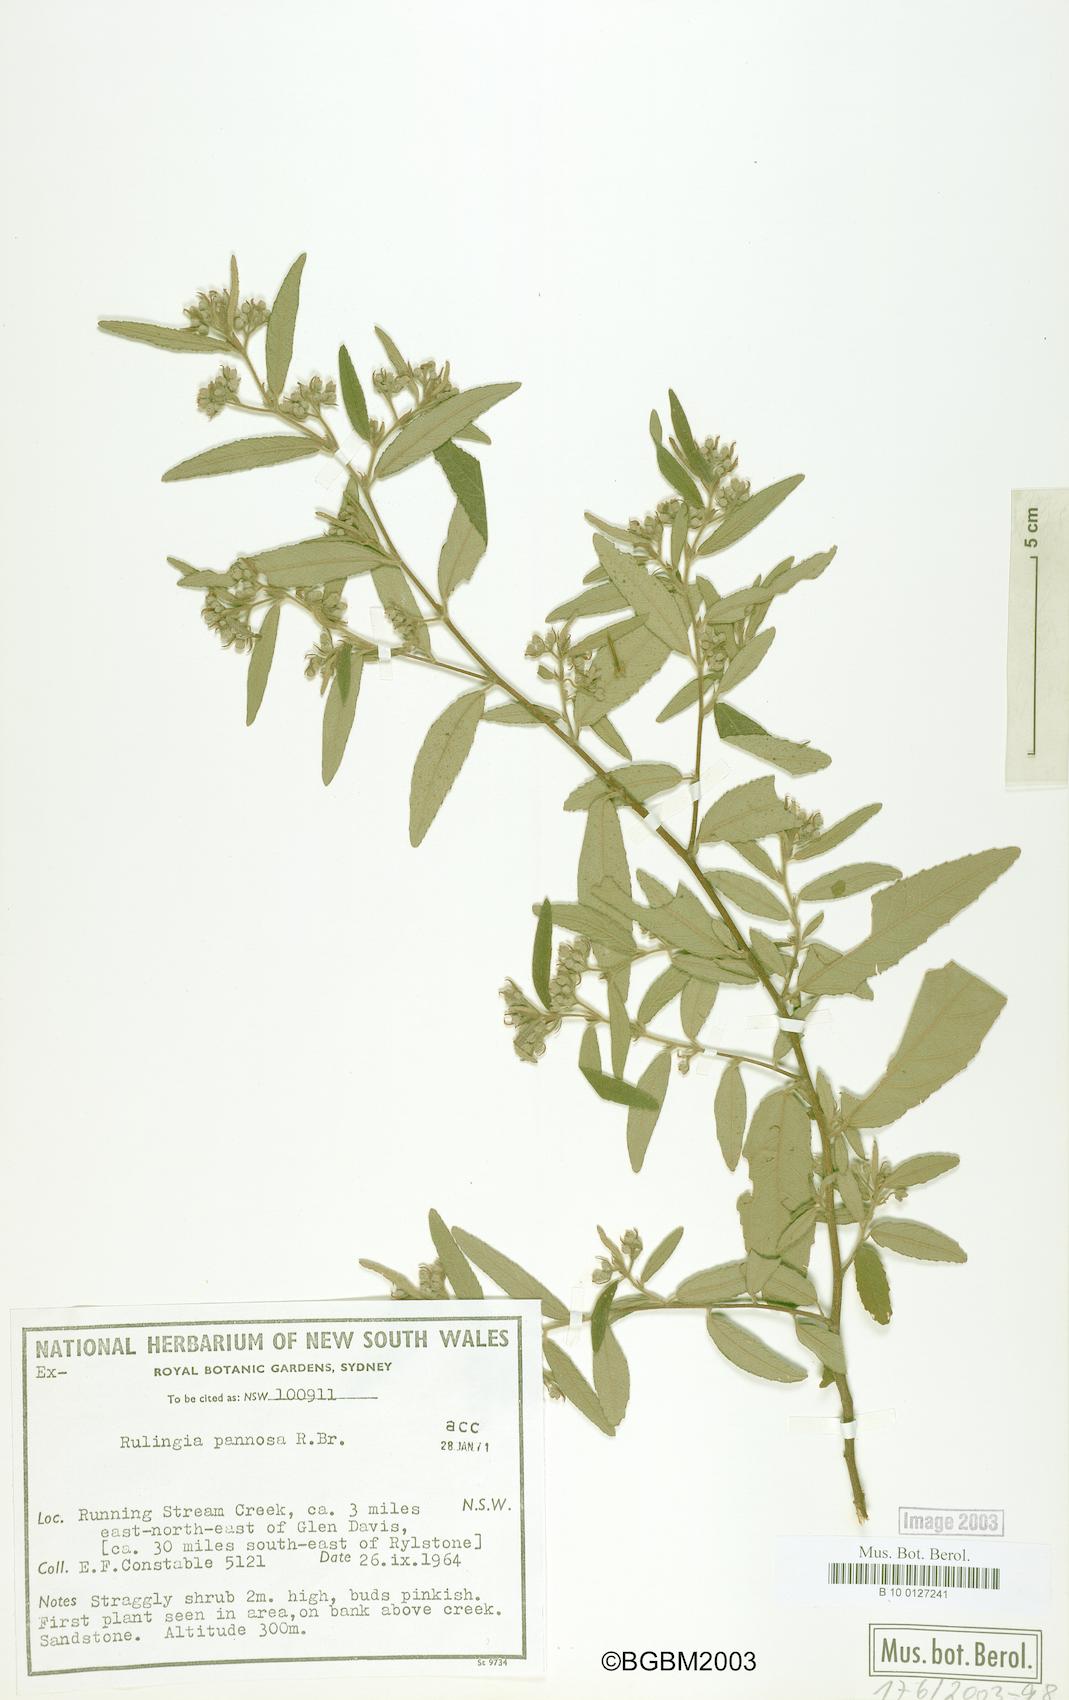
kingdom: Plantae
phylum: Tracheophyta
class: Magnoliopsida
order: Malvales
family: Malvaceae
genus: Commersonia
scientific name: Commersonia dasyphylla
